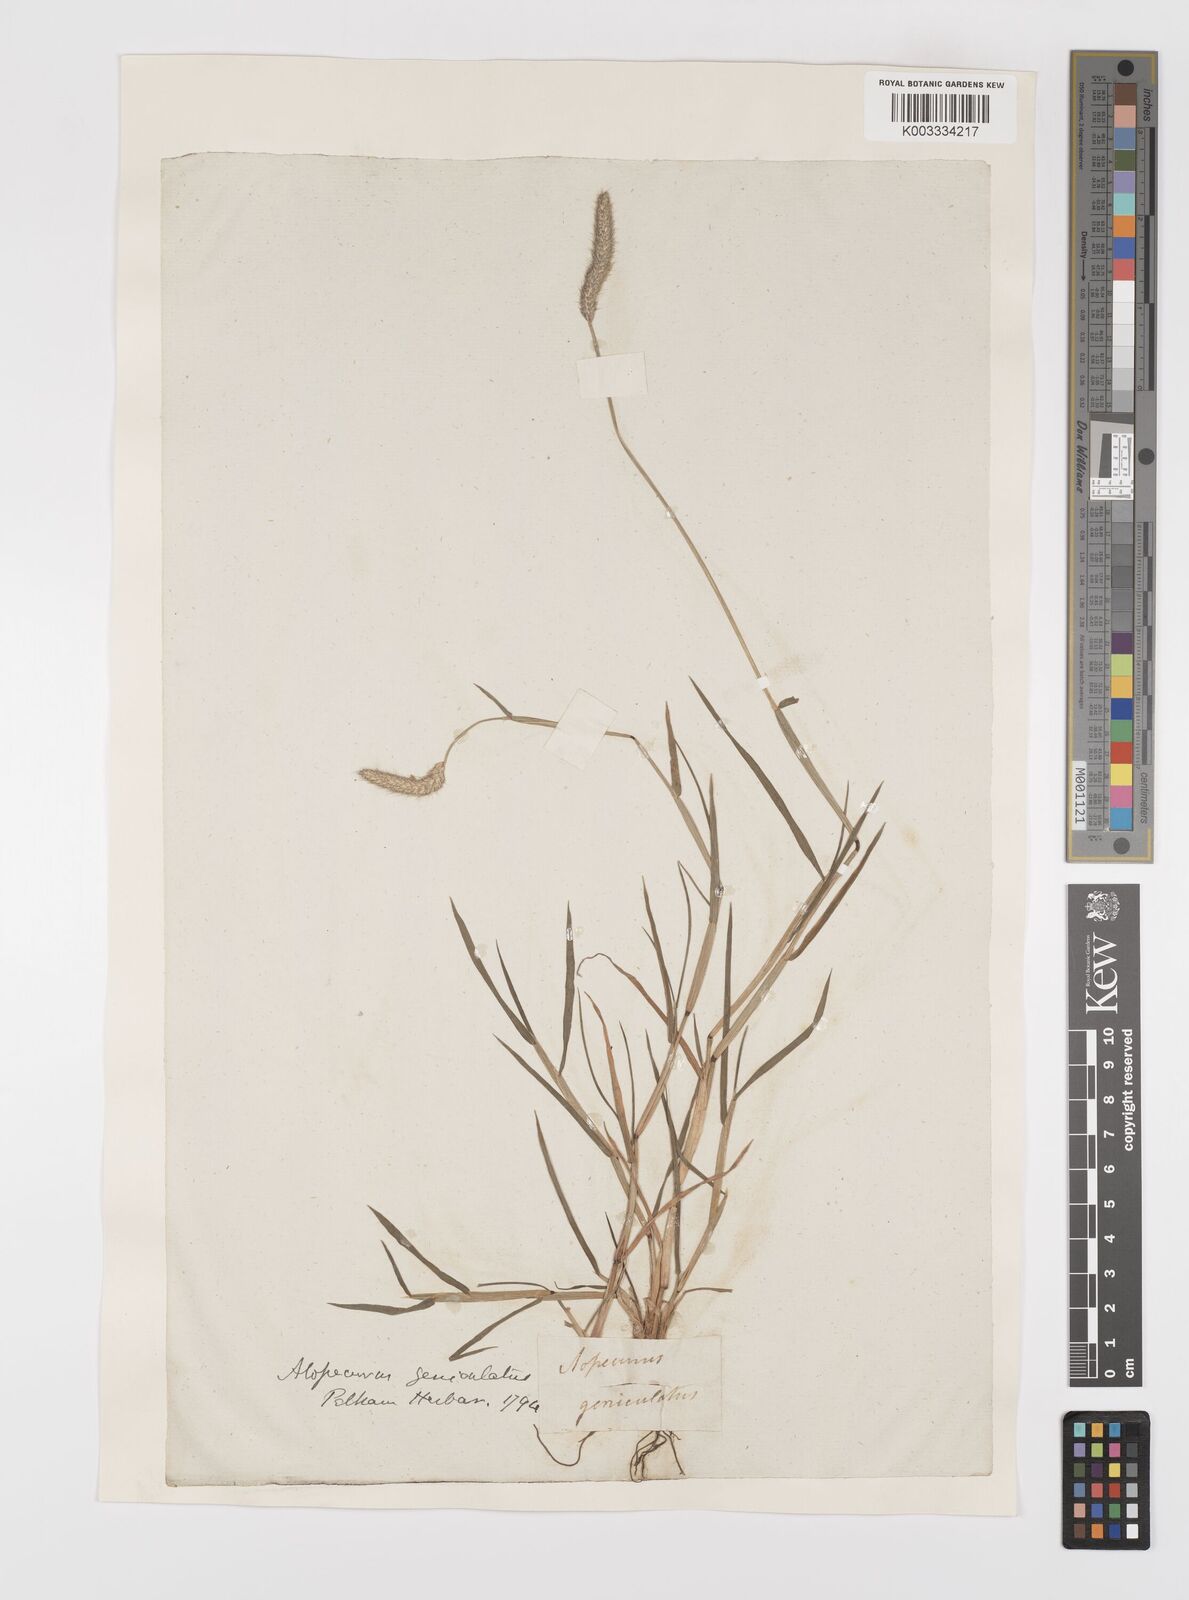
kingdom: Plantae
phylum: Tracheophyta
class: Liliopsida
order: Poales
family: Poaceae
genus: Alopecurus
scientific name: Alopecurus geniculatus
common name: Water foxtail
